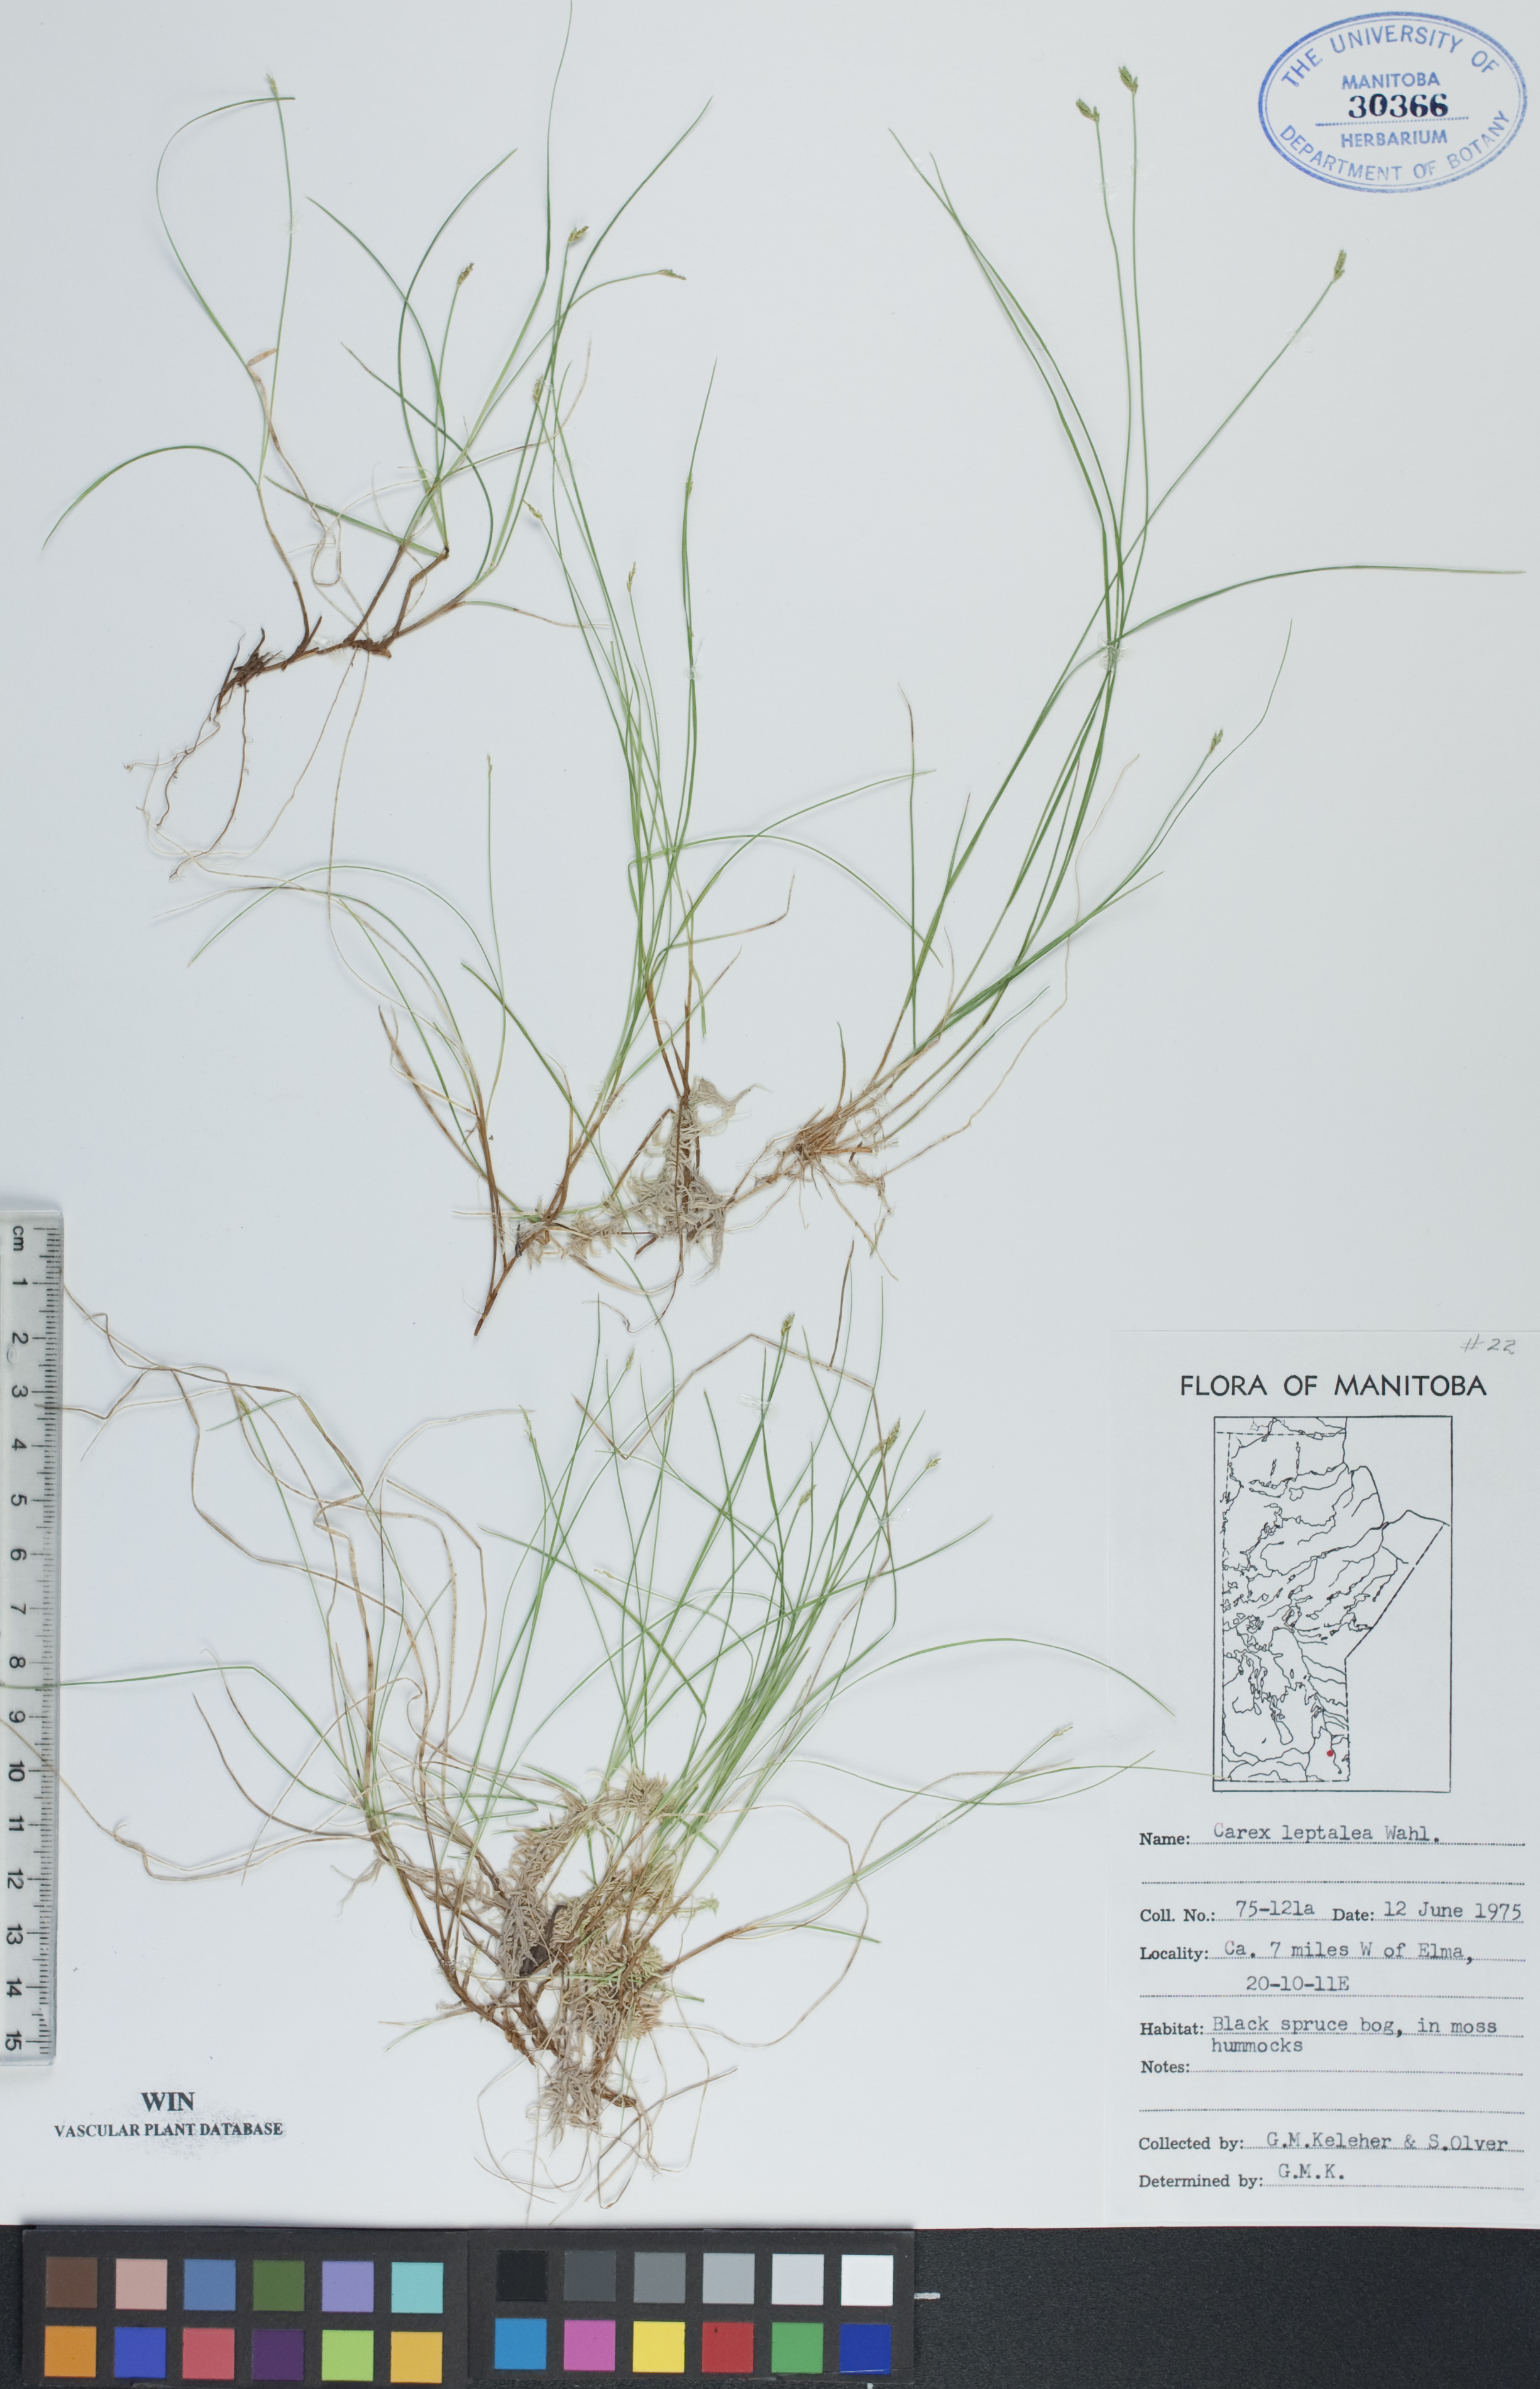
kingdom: Plantae
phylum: Tracheophyta
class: Liliopsida
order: Poales
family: Cyperaceae
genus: Carex
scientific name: Carex leptalea
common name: Bristly-stalked sedge
